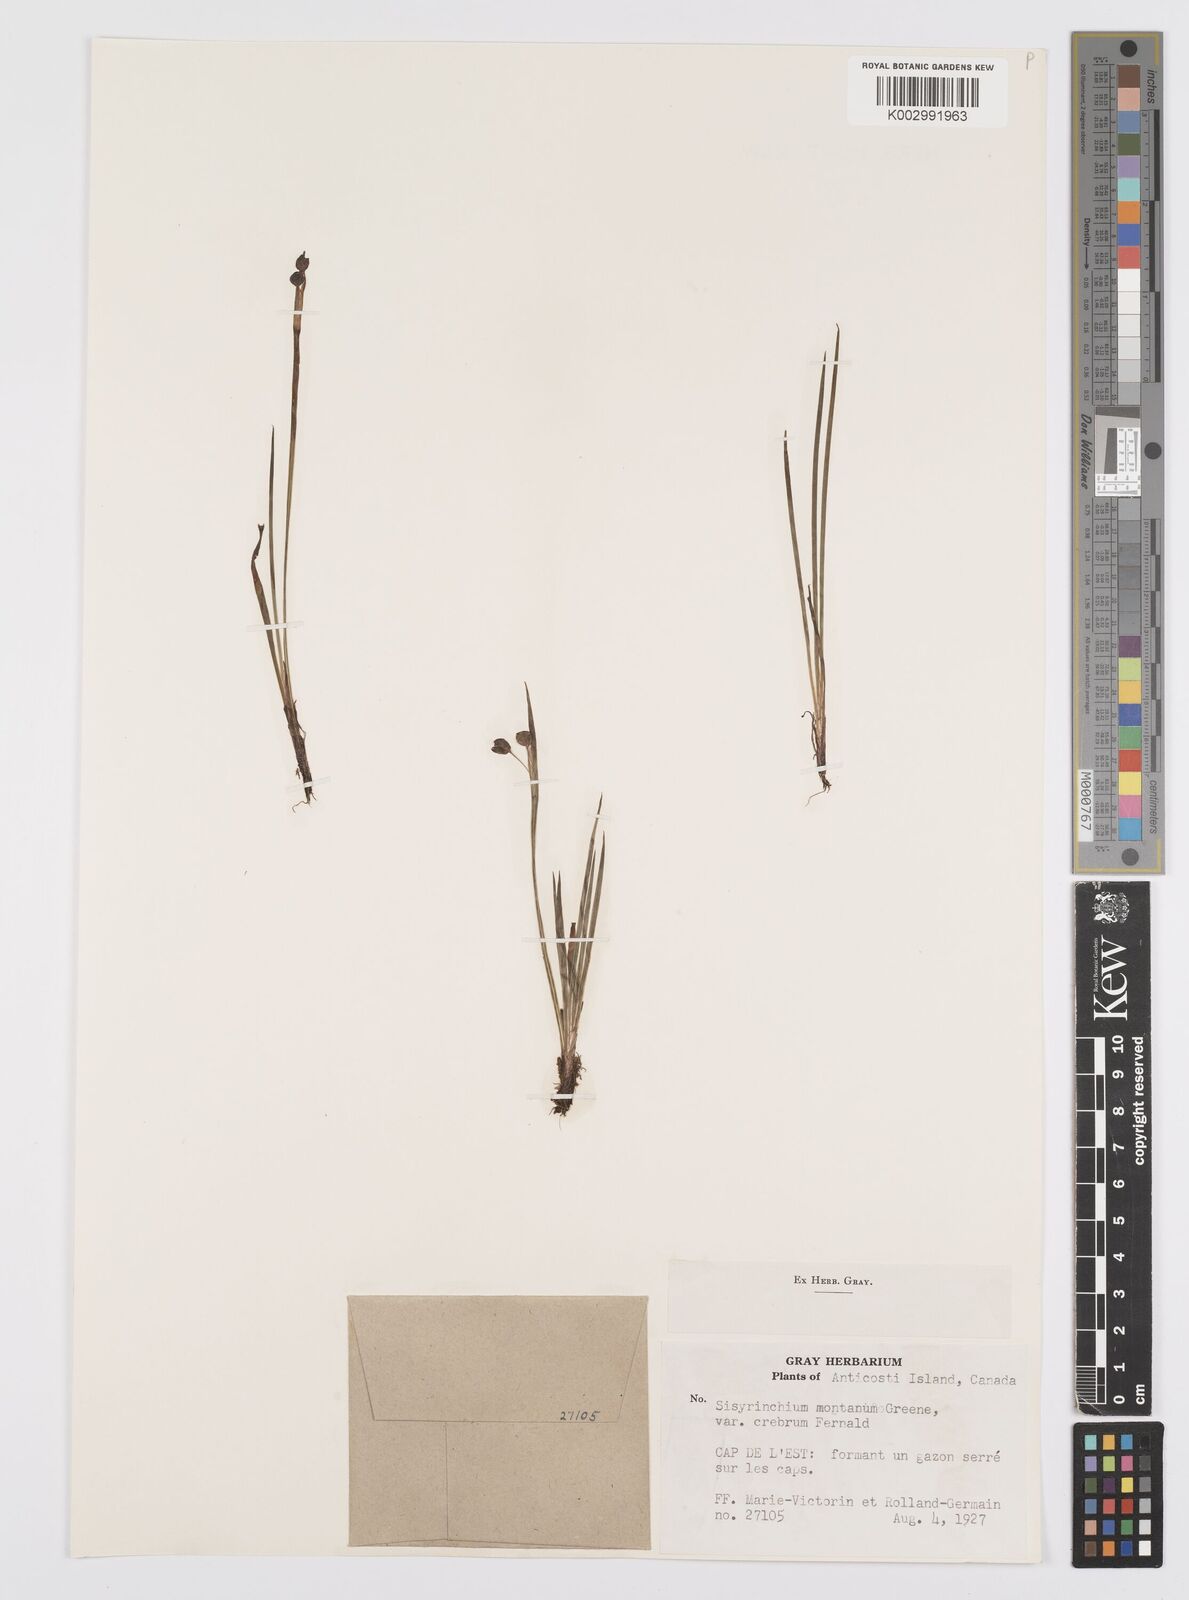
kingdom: Plantae
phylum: Tracheophyta
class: Liliopsida
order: Asparagales
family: Iridaceae
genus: Sisyrinchium
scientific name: Sisyrinchium montanum
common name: American blue-eyed-grass
